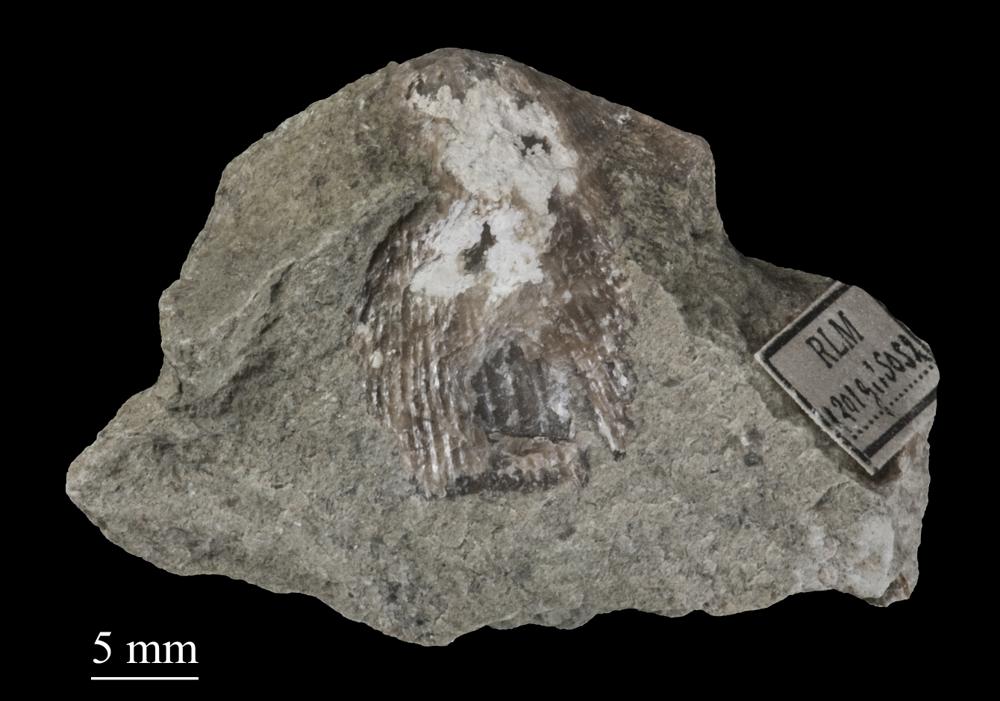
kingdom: Animalia
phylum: Brachiopoda
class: Rhynchonellata
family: Clitambonitidae
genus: Clitambonites
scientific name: Clitambonites squamatus
